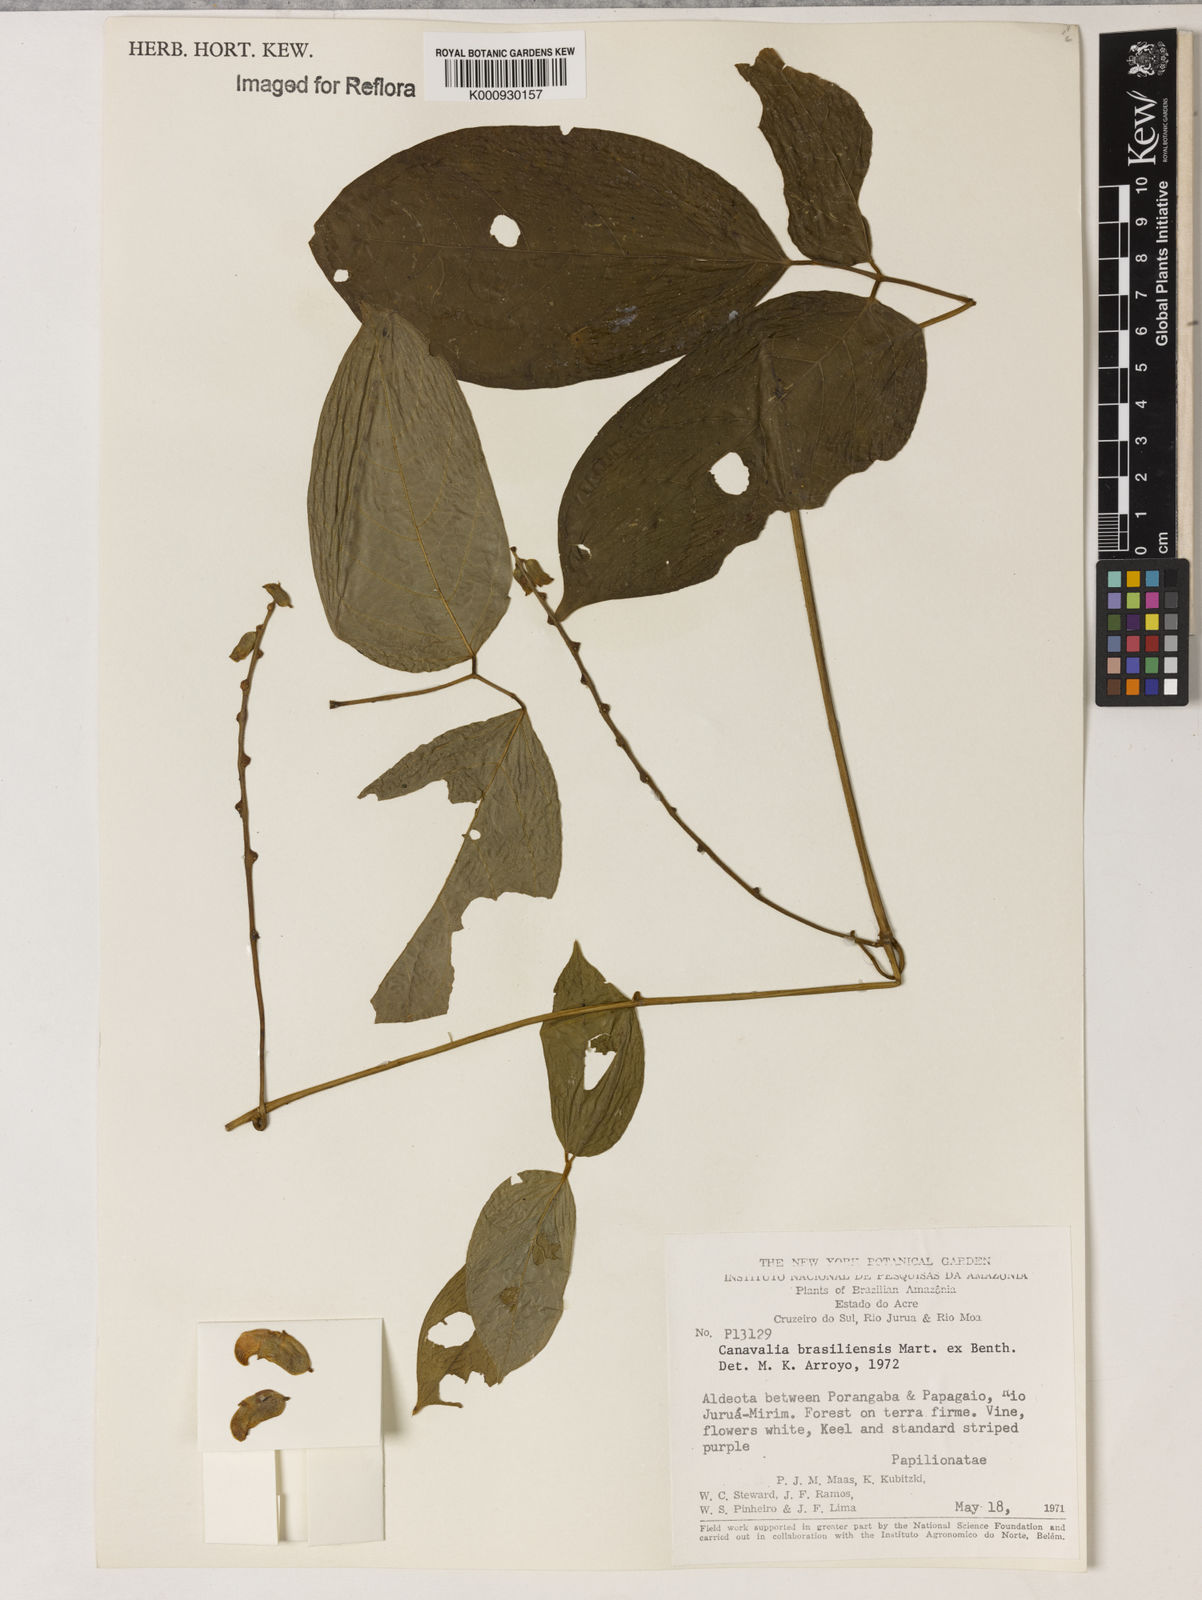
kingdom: Plantae
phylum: Tracheophyta
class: Magnoliopsida
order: Fabales
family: Fabaceae
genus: Canavalia
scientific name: Canavalia brasiliensis
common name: Barbicou-bean
